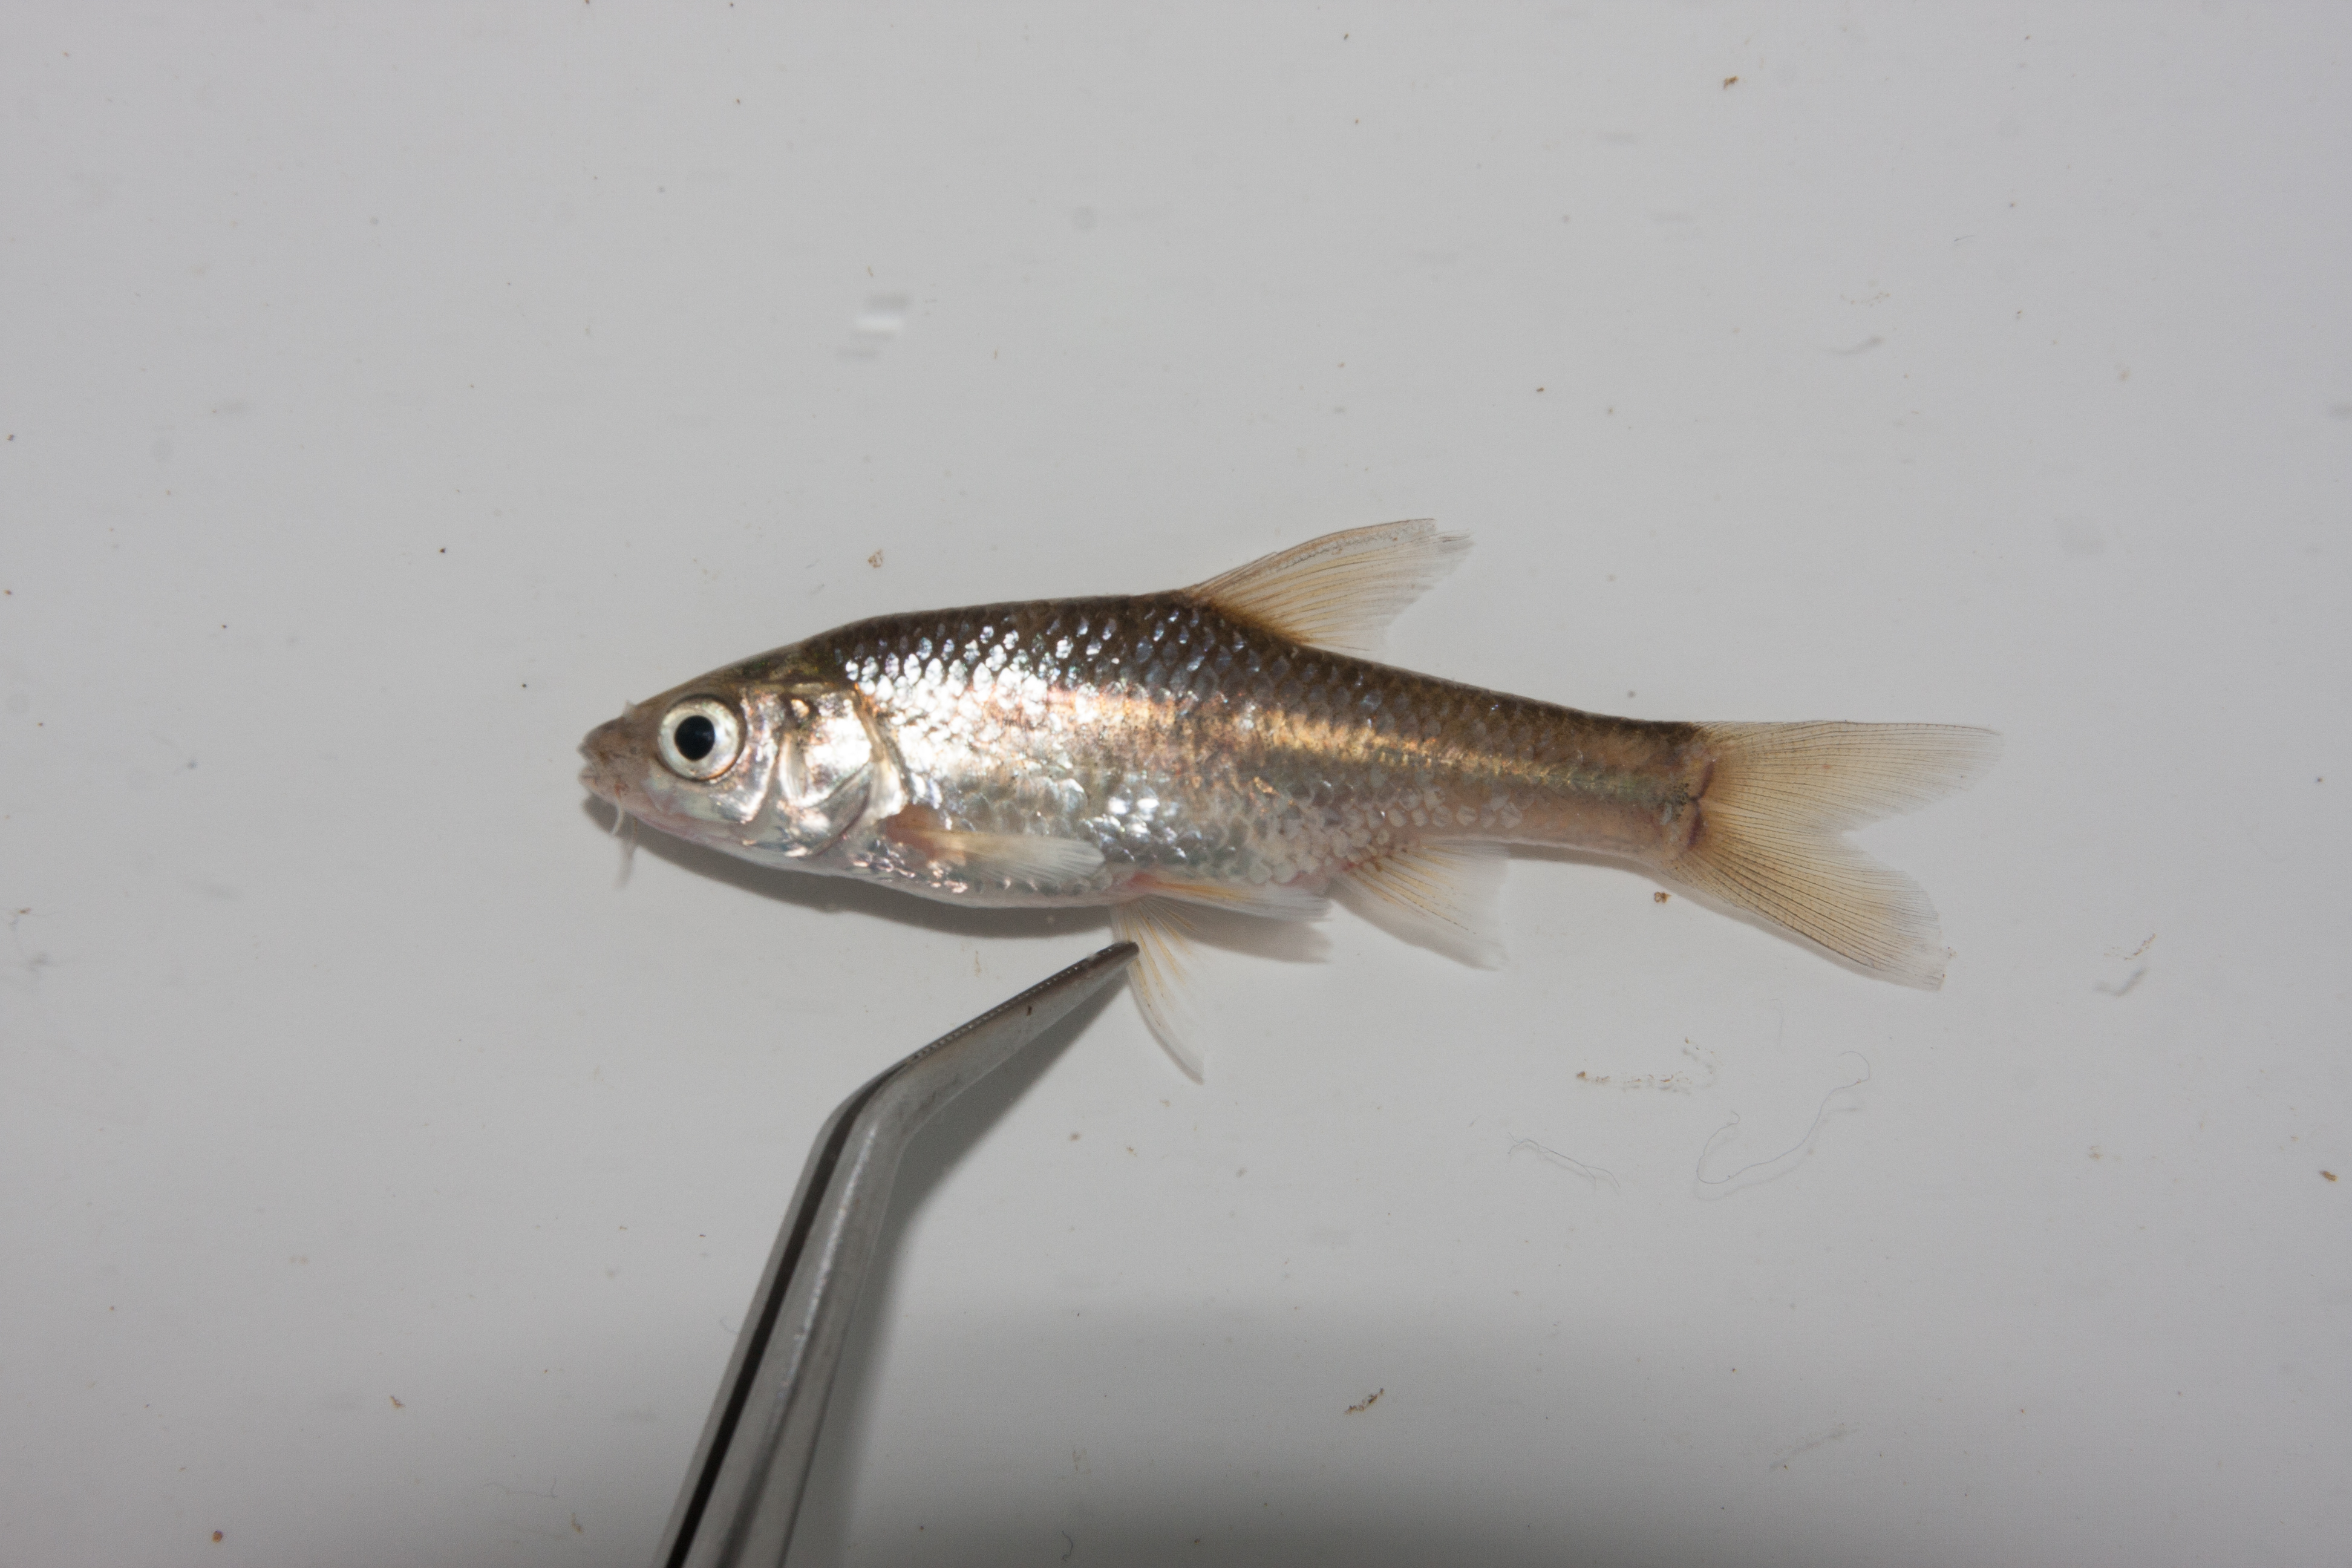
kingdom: Animalia
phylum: Chordata
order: Cypriniformes
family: Cyprinidae
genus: Enteromius
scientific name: Enteromius paludinosus
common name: Straightfin barb
